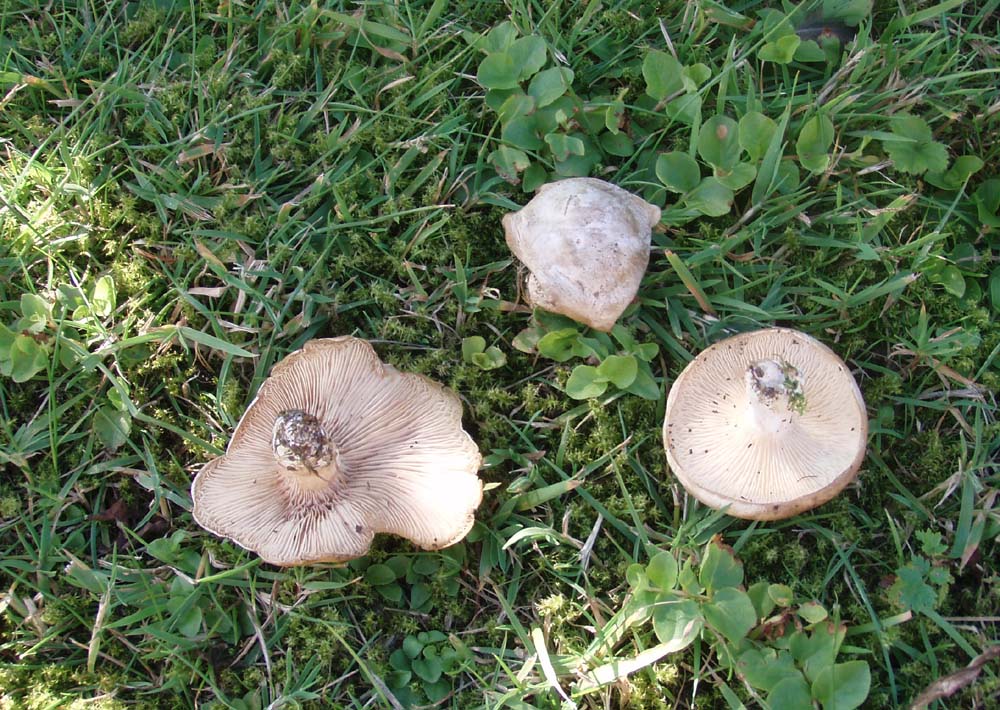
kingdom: Fungi
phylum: Basidiomycota
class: Agaricomycetes
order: Agaricales
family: Entolomataceae
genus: Clitopilus
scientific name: Clitopilus prunulus
